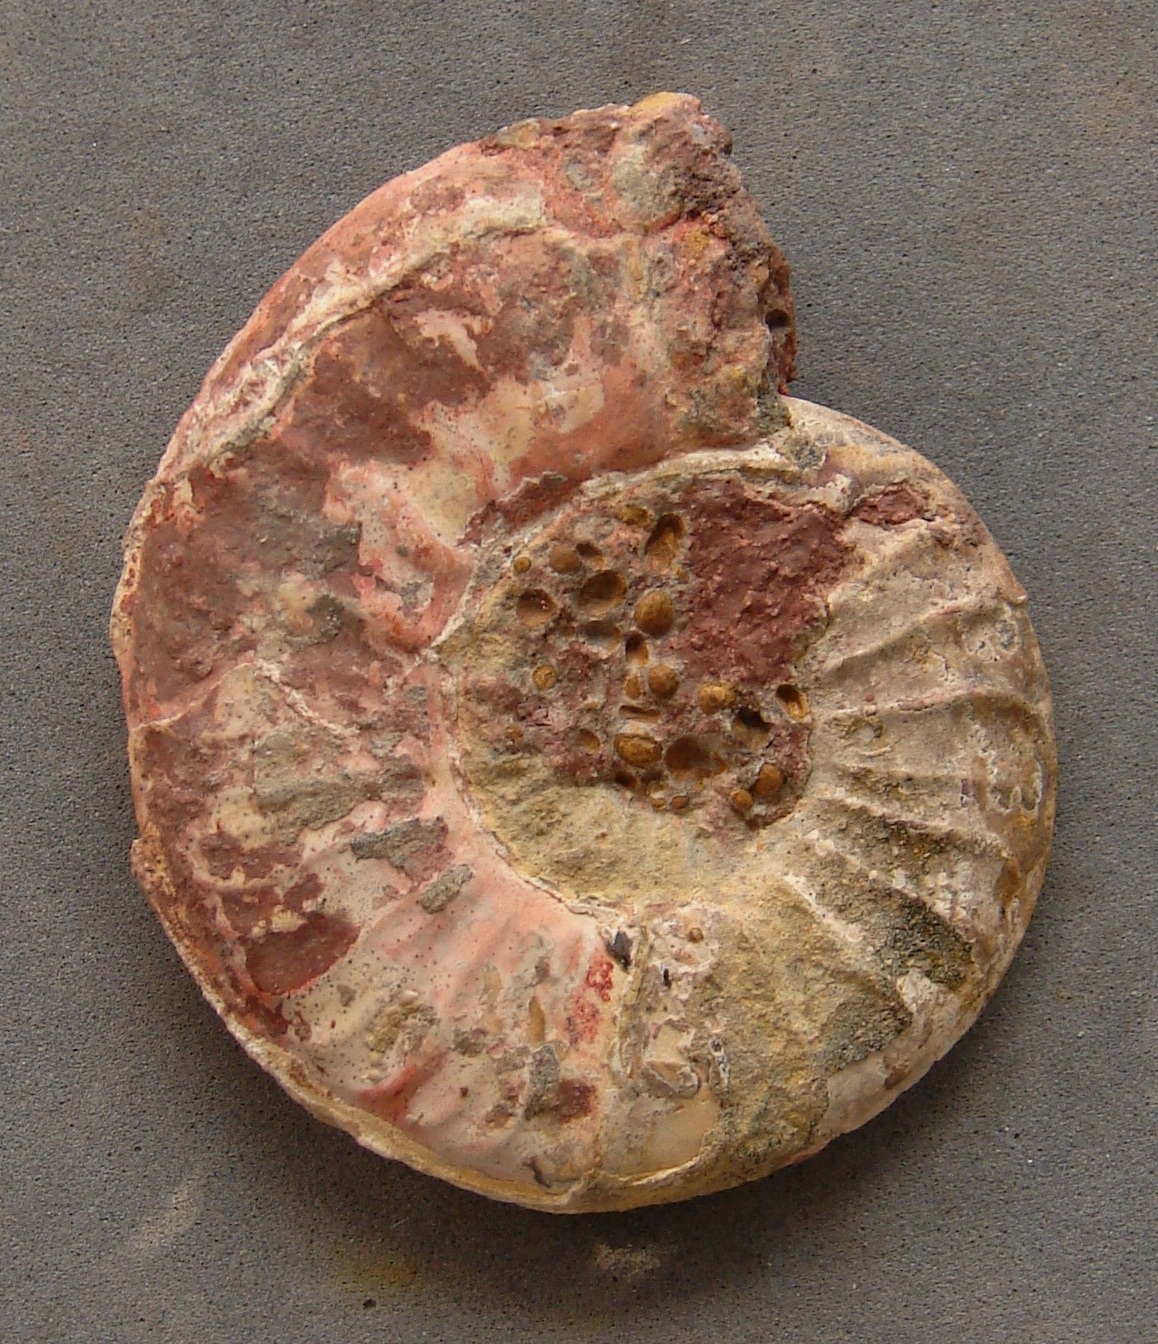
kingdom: Animalia
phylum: Mollusca
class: Cephalopoda
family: Hildoceratidae
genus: Dumortieria
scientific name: Dumortieria
